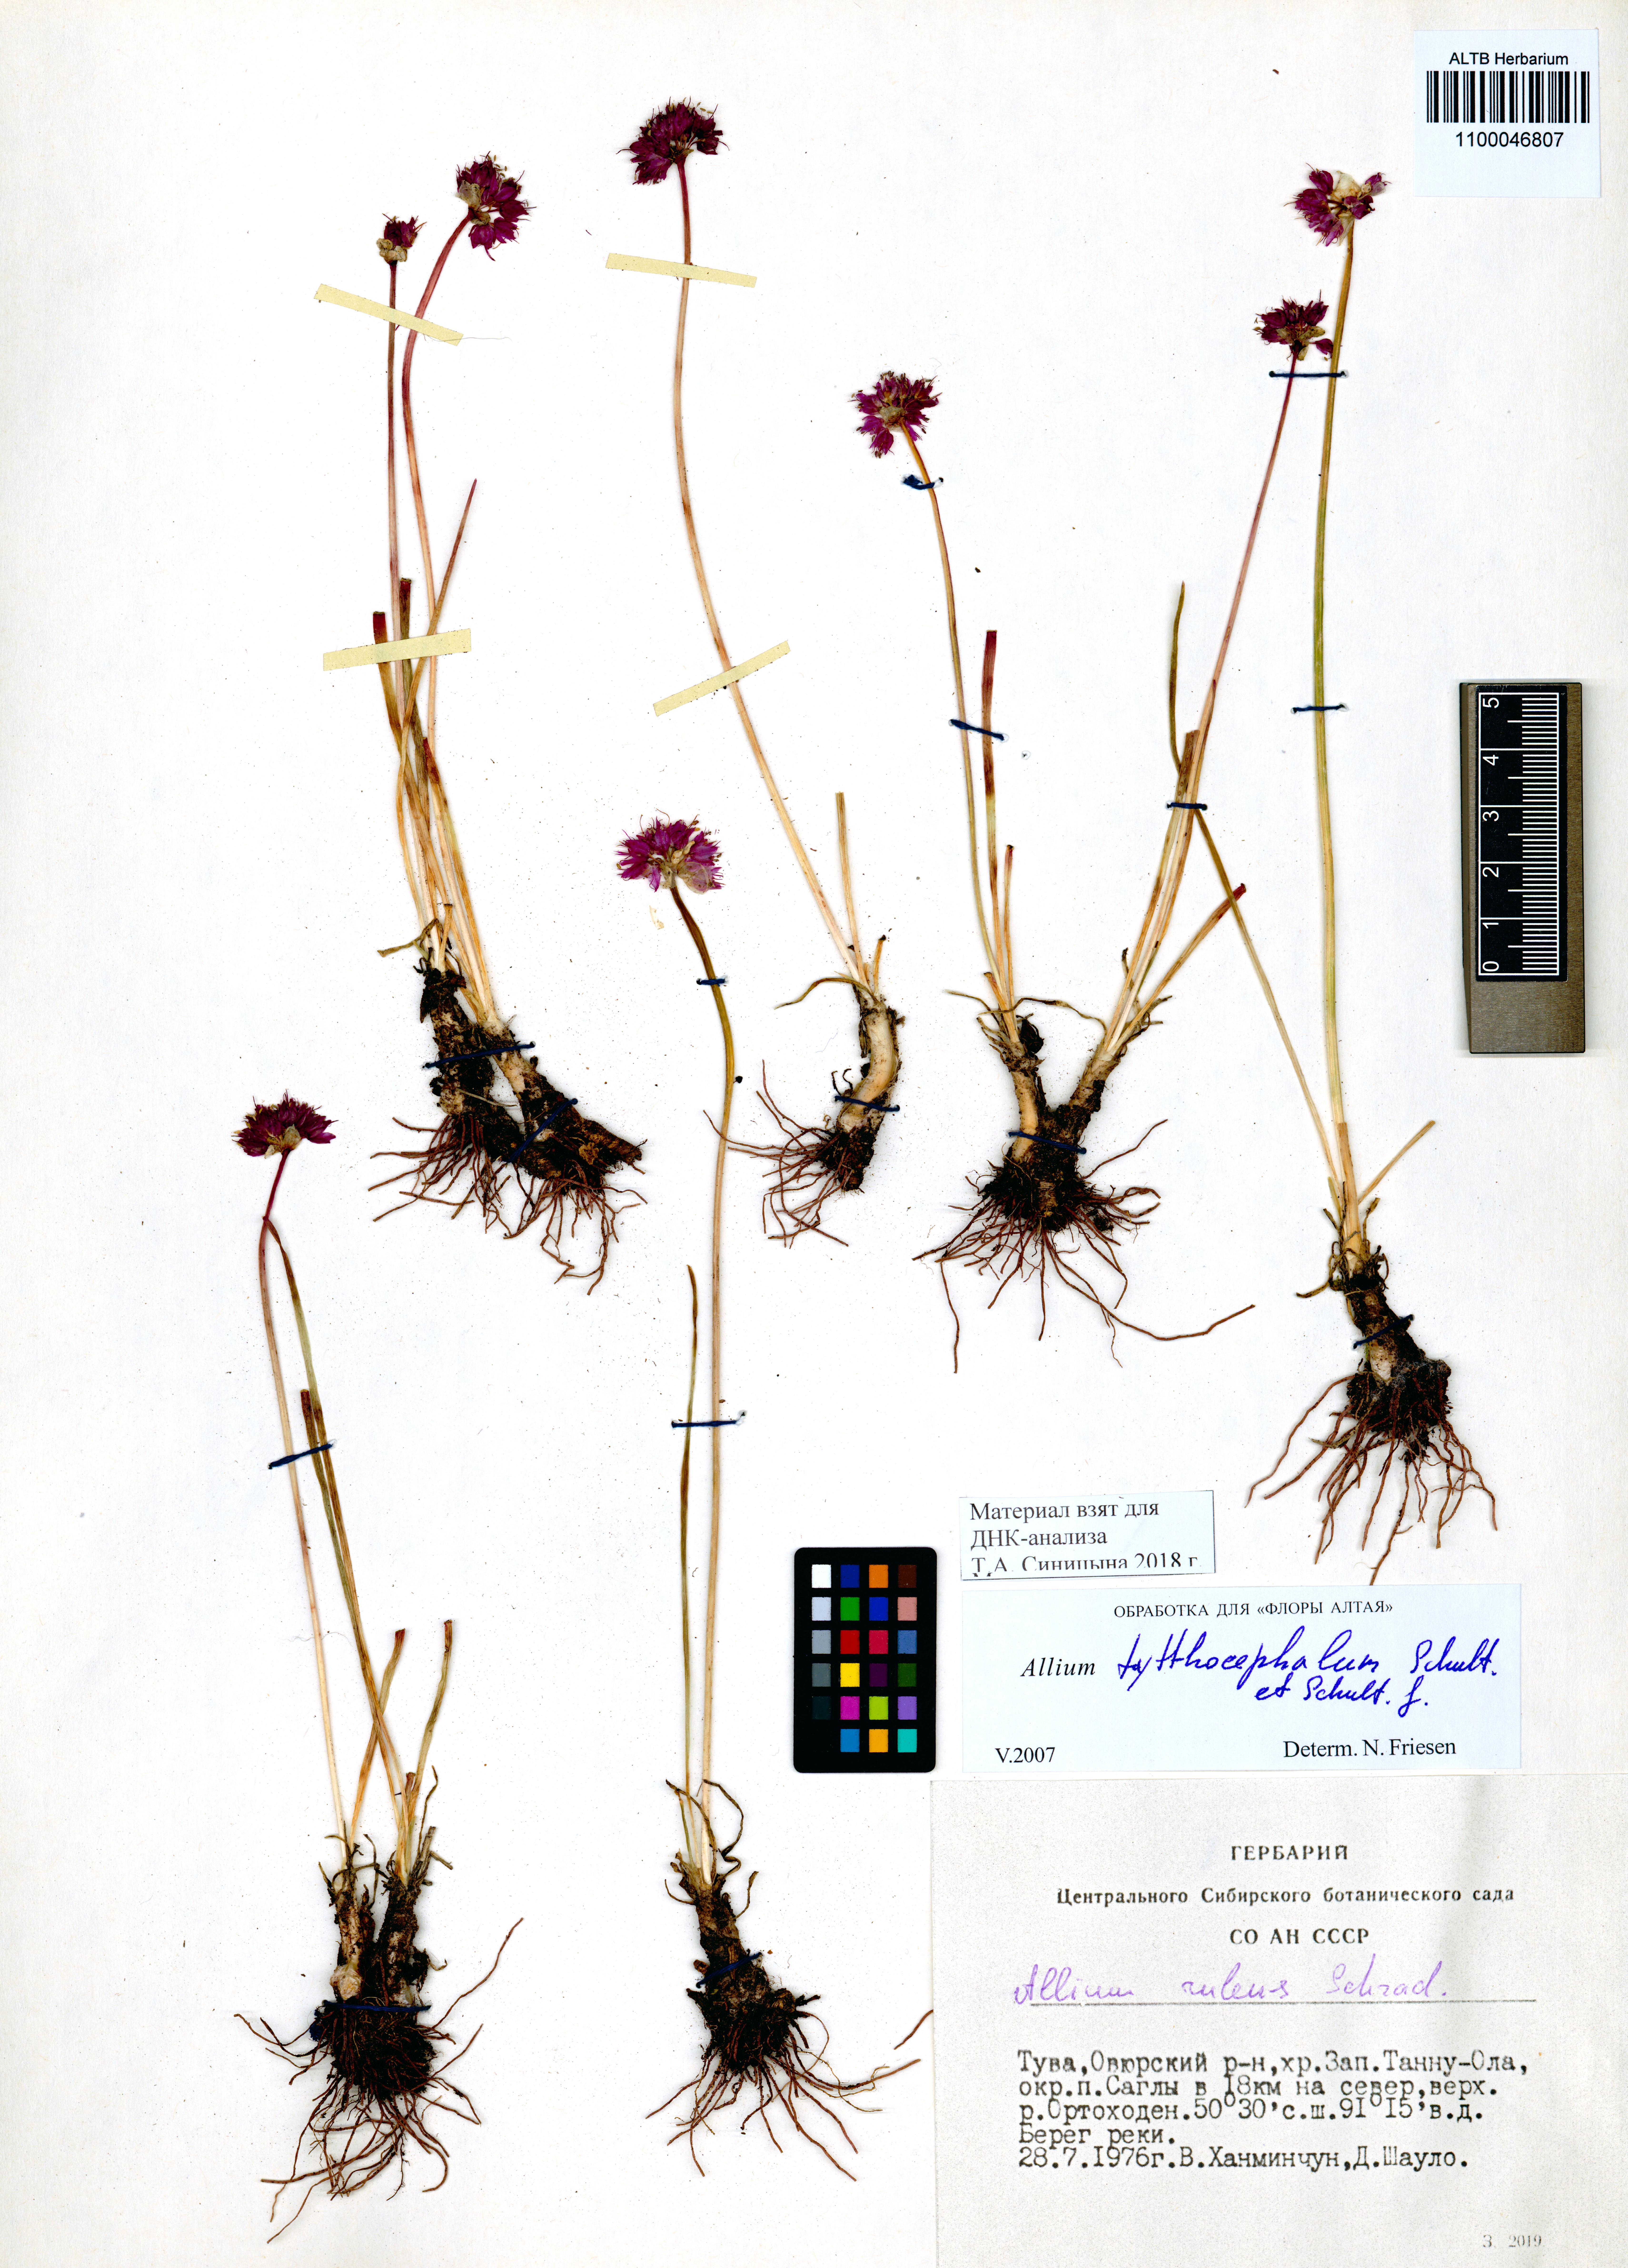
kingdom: Plantae
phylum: Tracheophyta
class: Liliopsida
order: Asparagales
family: Amaryllidaceae
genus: Allium
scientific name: Allium tytthocephalum
